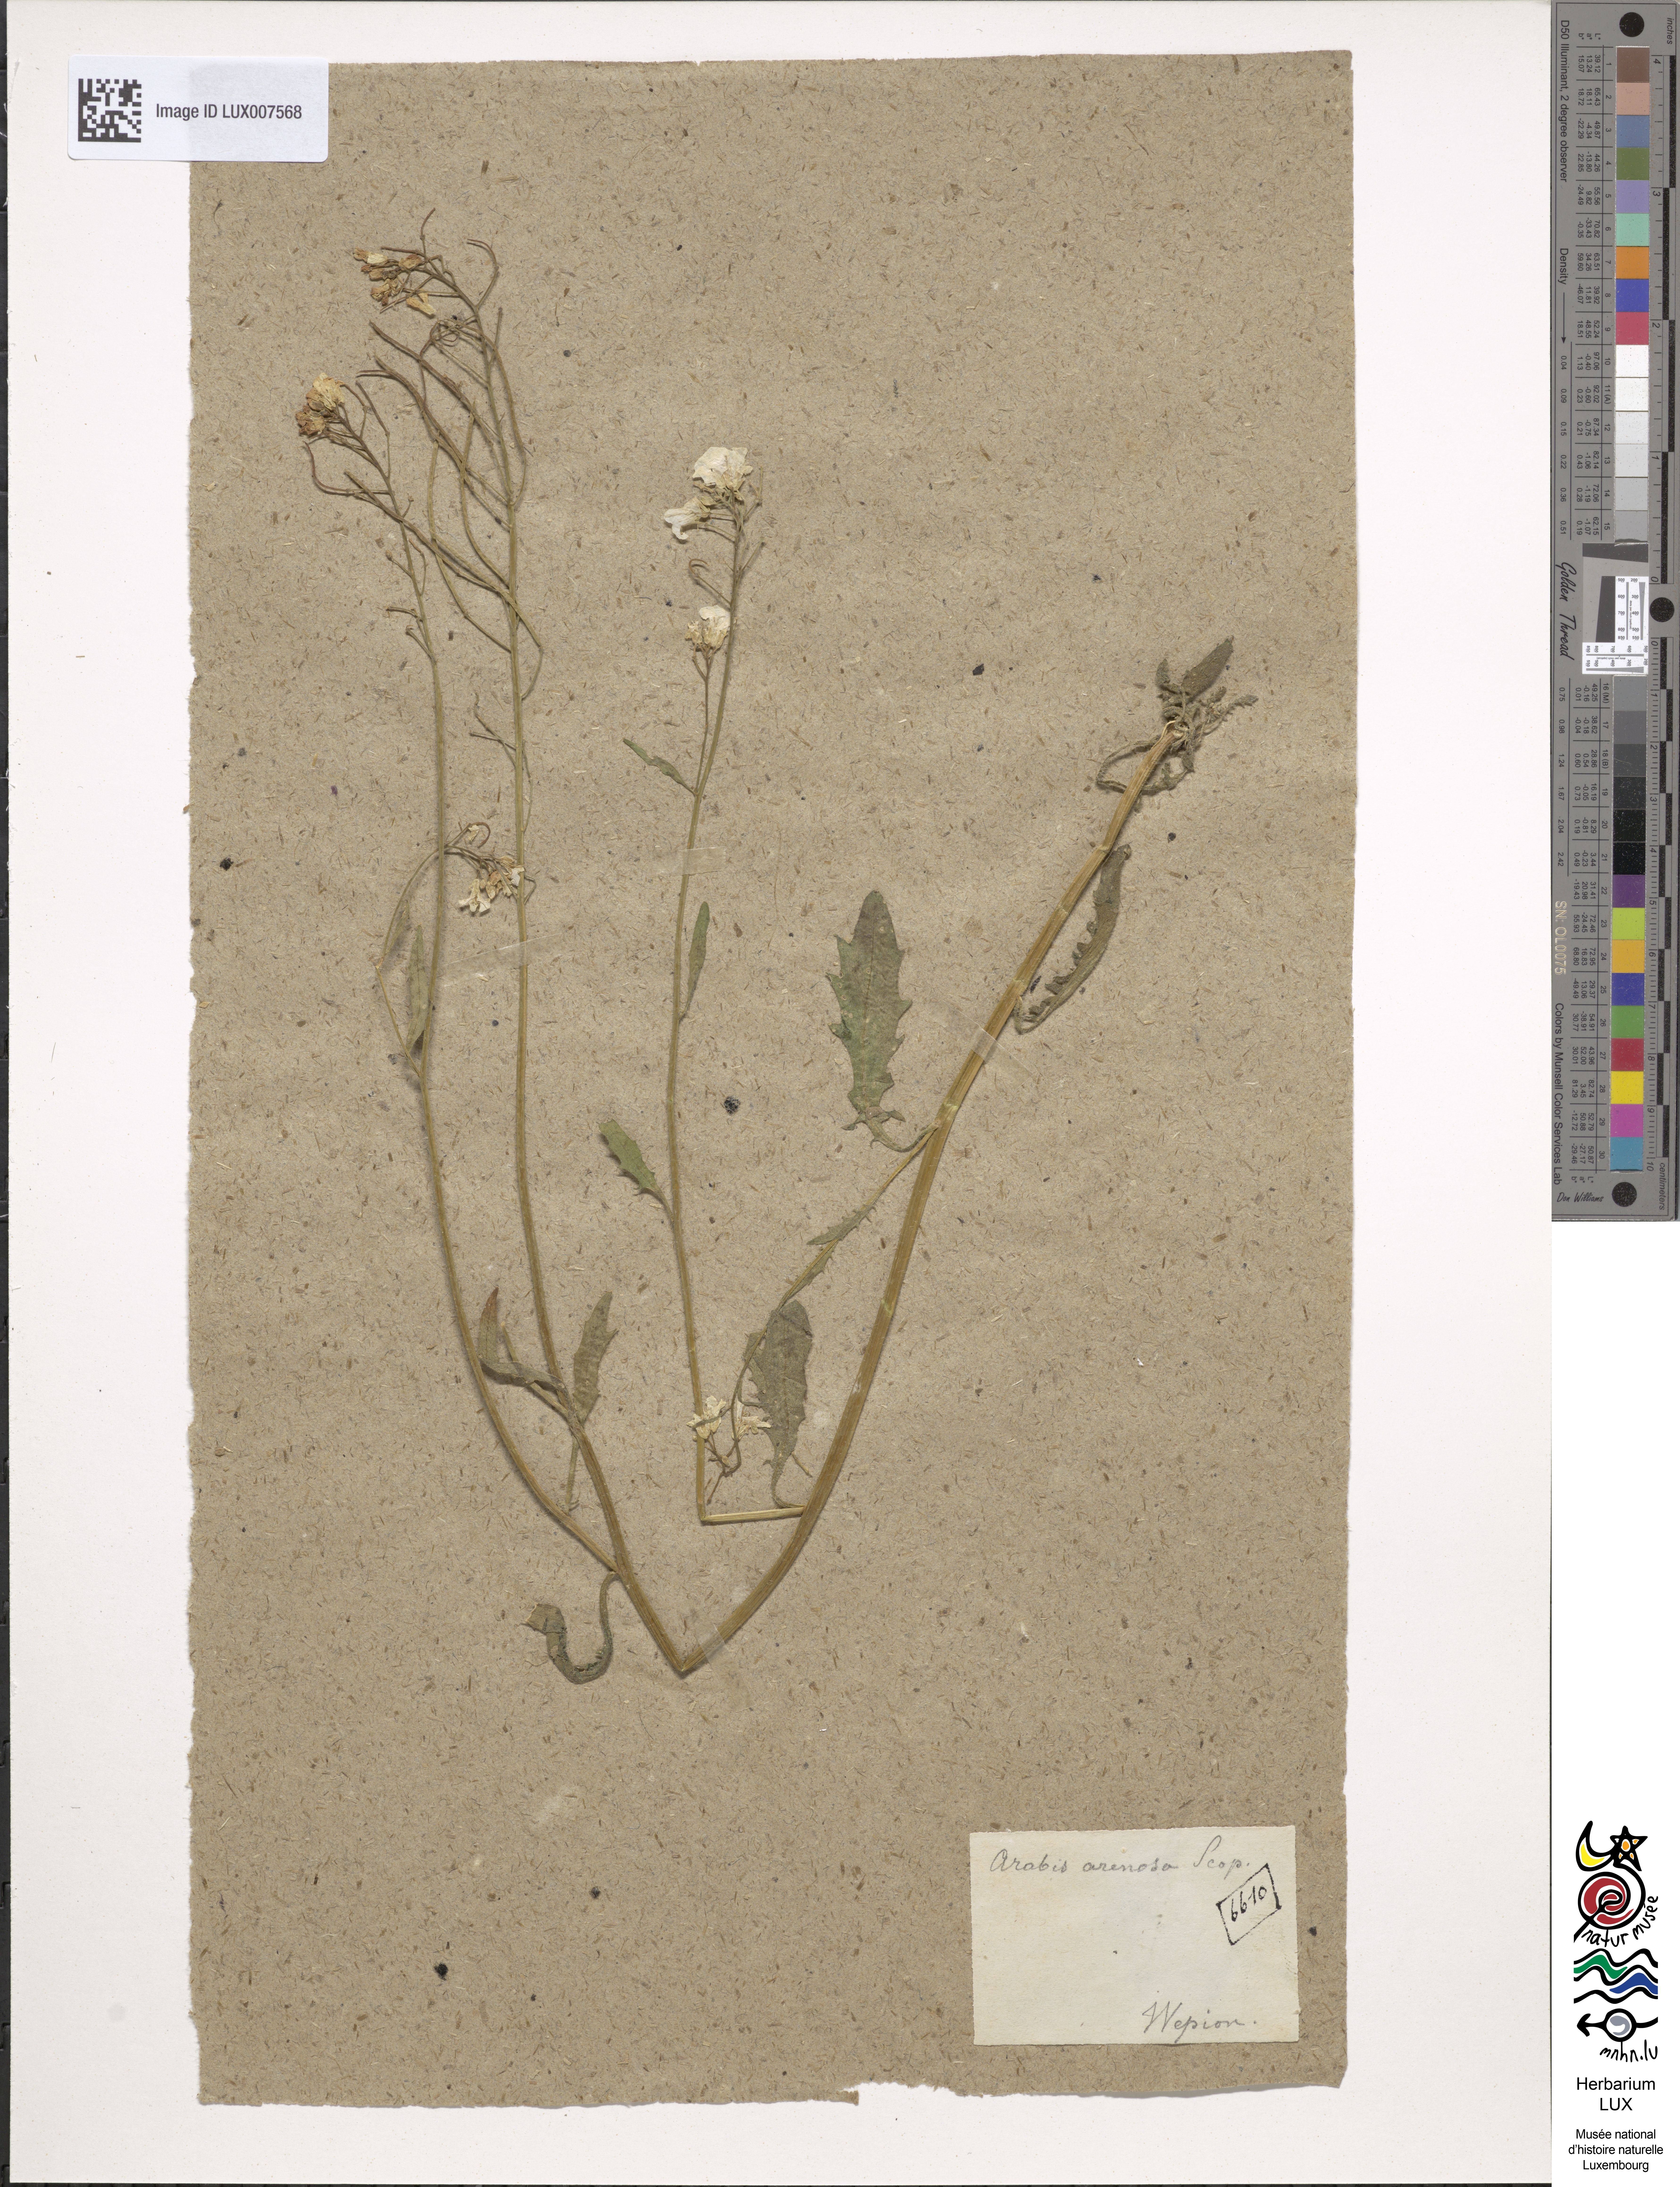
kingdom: Plantae
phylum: Tracheophyta
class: Magnoliopsida
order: Brassicales
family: Brassicaceae
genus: Arabidopsis
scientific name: Arabidopsis arenosa
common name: Sand rock-cress
